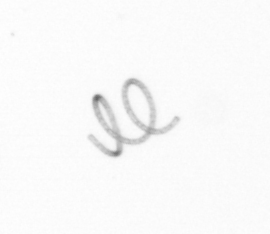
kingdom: Chromista
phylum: Ochrophyta
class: Bacillariophyceae
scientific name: Bacillariophyceae
